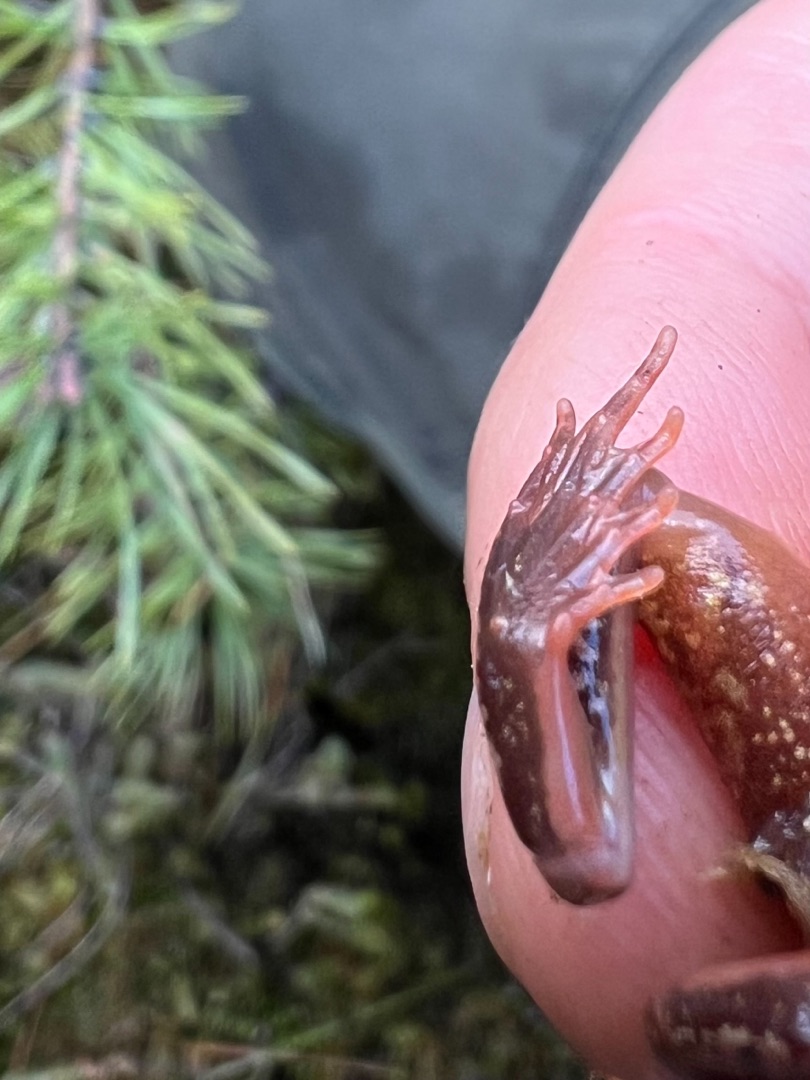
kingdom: Animalia
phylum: Chordata
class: Amphibia
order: Anura
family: Ranidae
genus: Rana
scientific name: Rana temporaria
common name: Butsnudet frø
